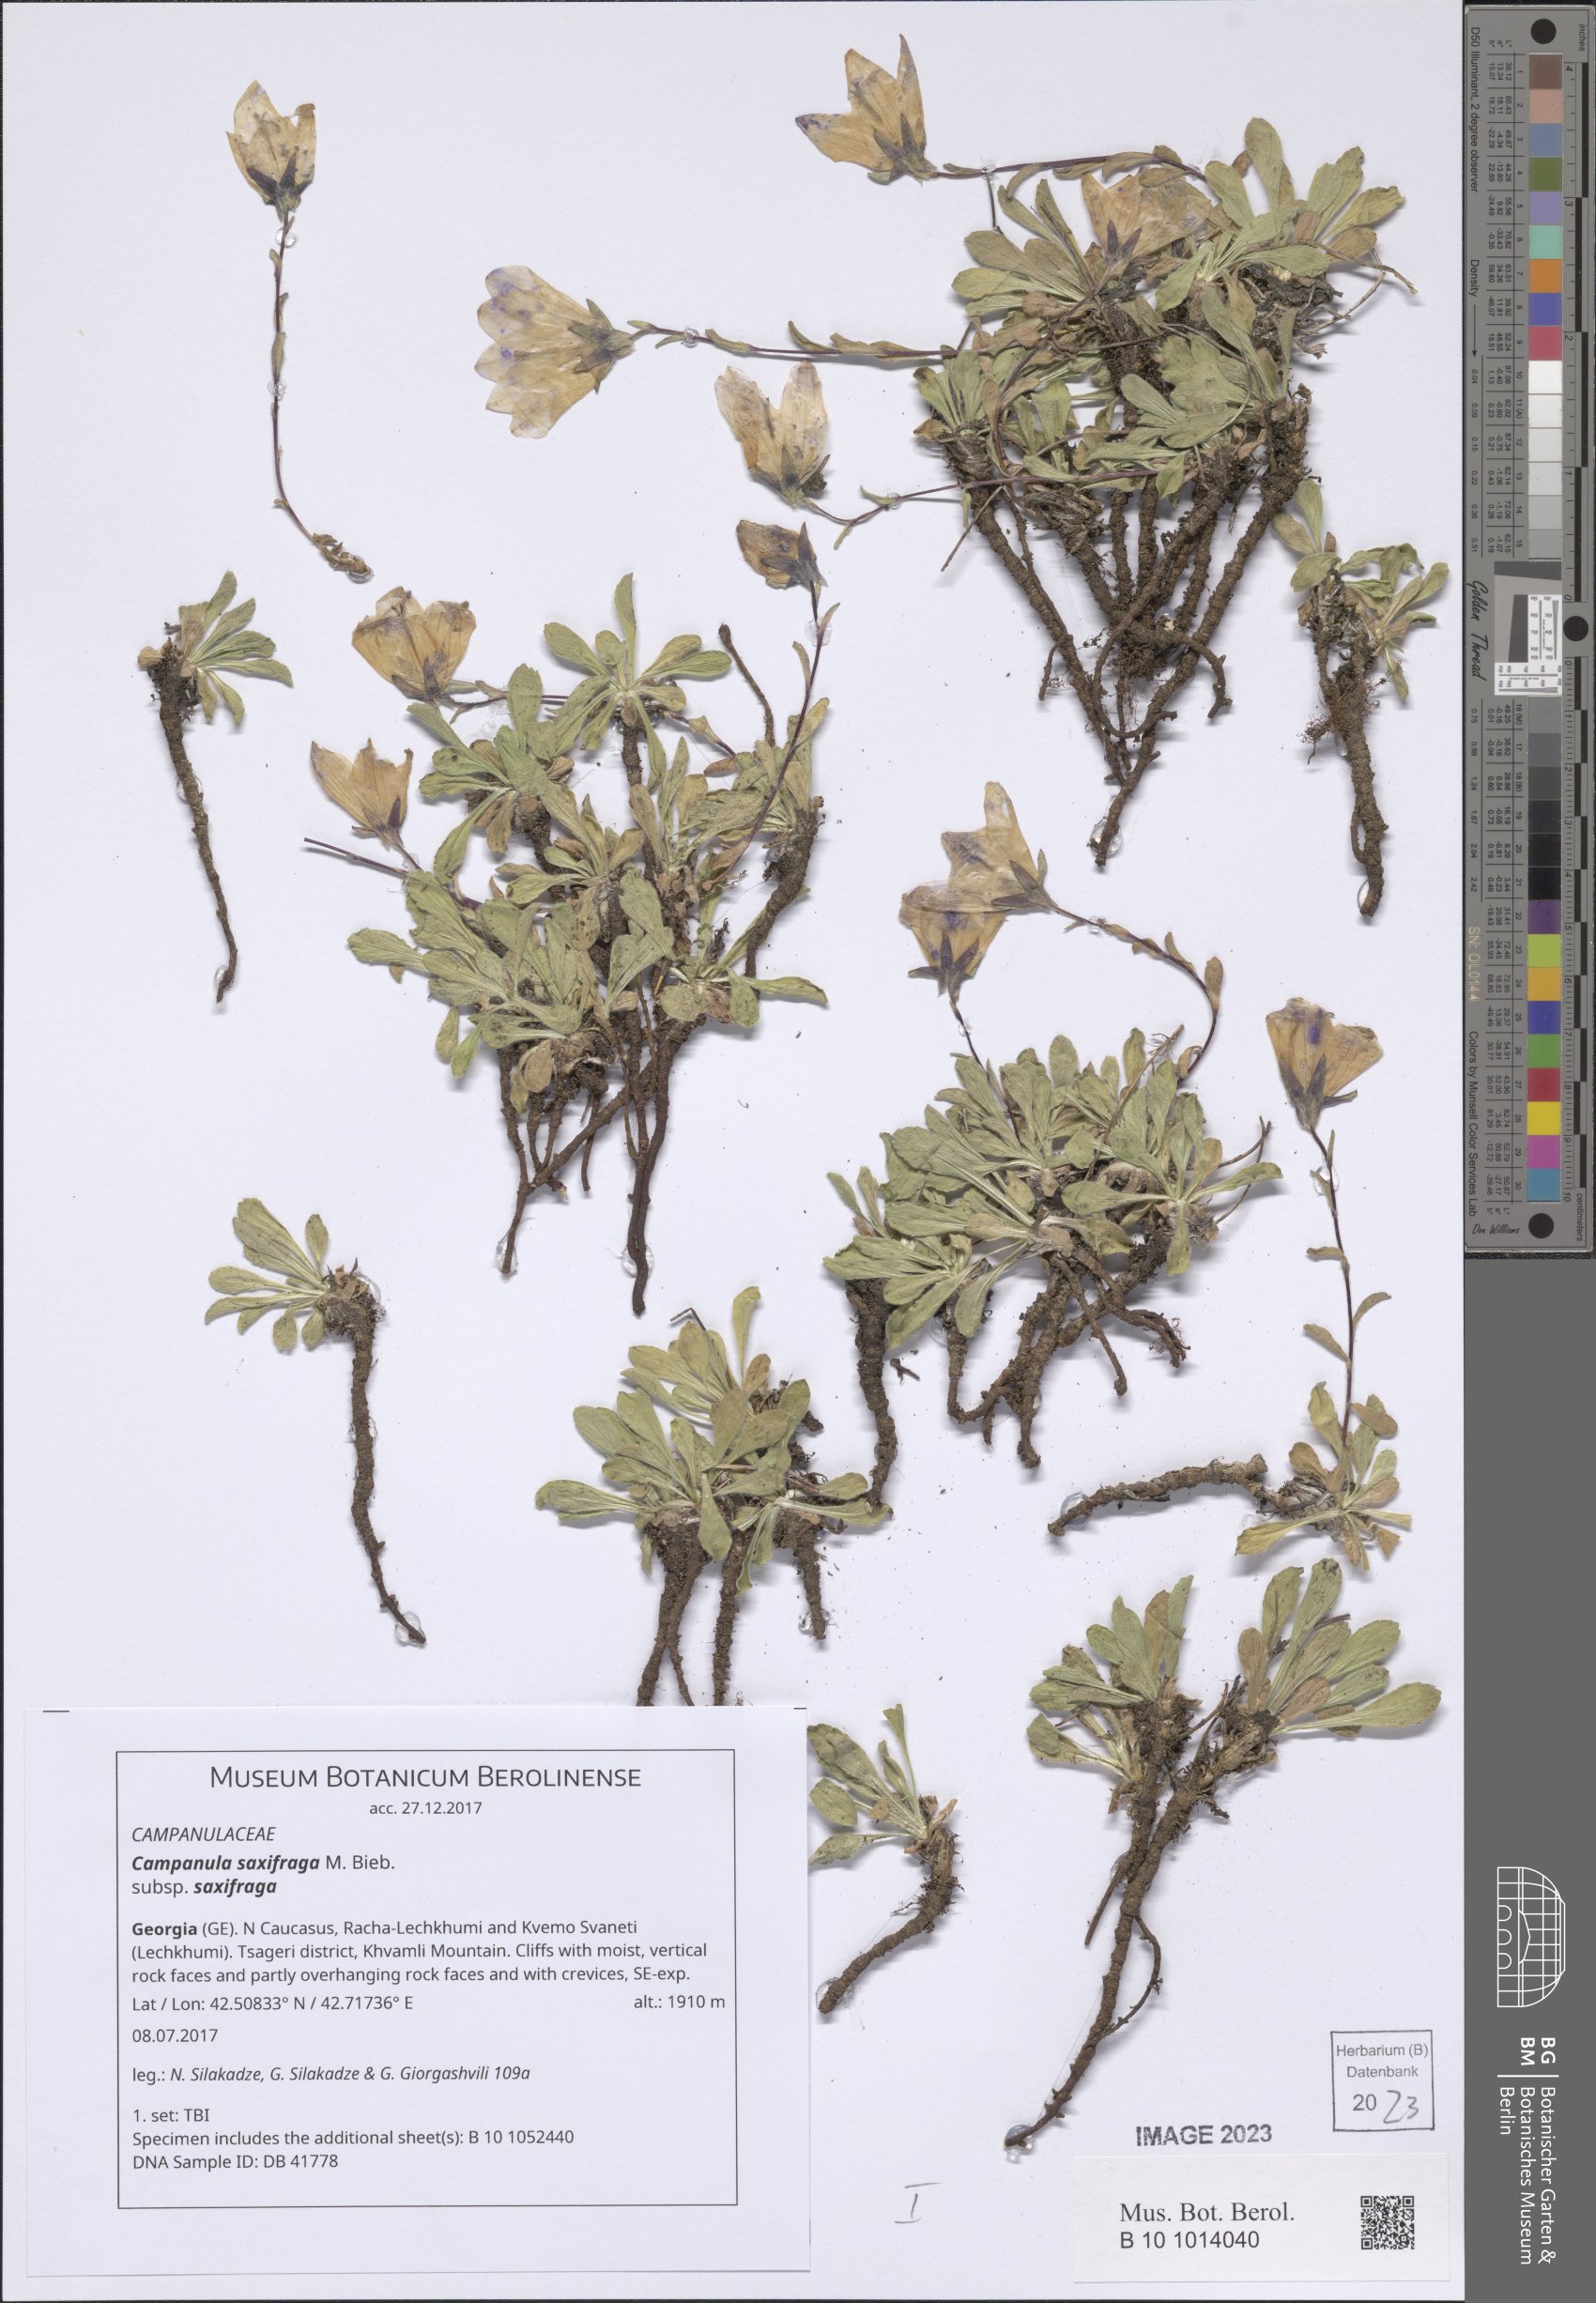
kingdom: Plantae
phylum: Tracheophyta
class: Magnoliopsida
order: Asterales
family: Campanulaceae
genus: Campanula
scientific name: Campanula saxifraga
